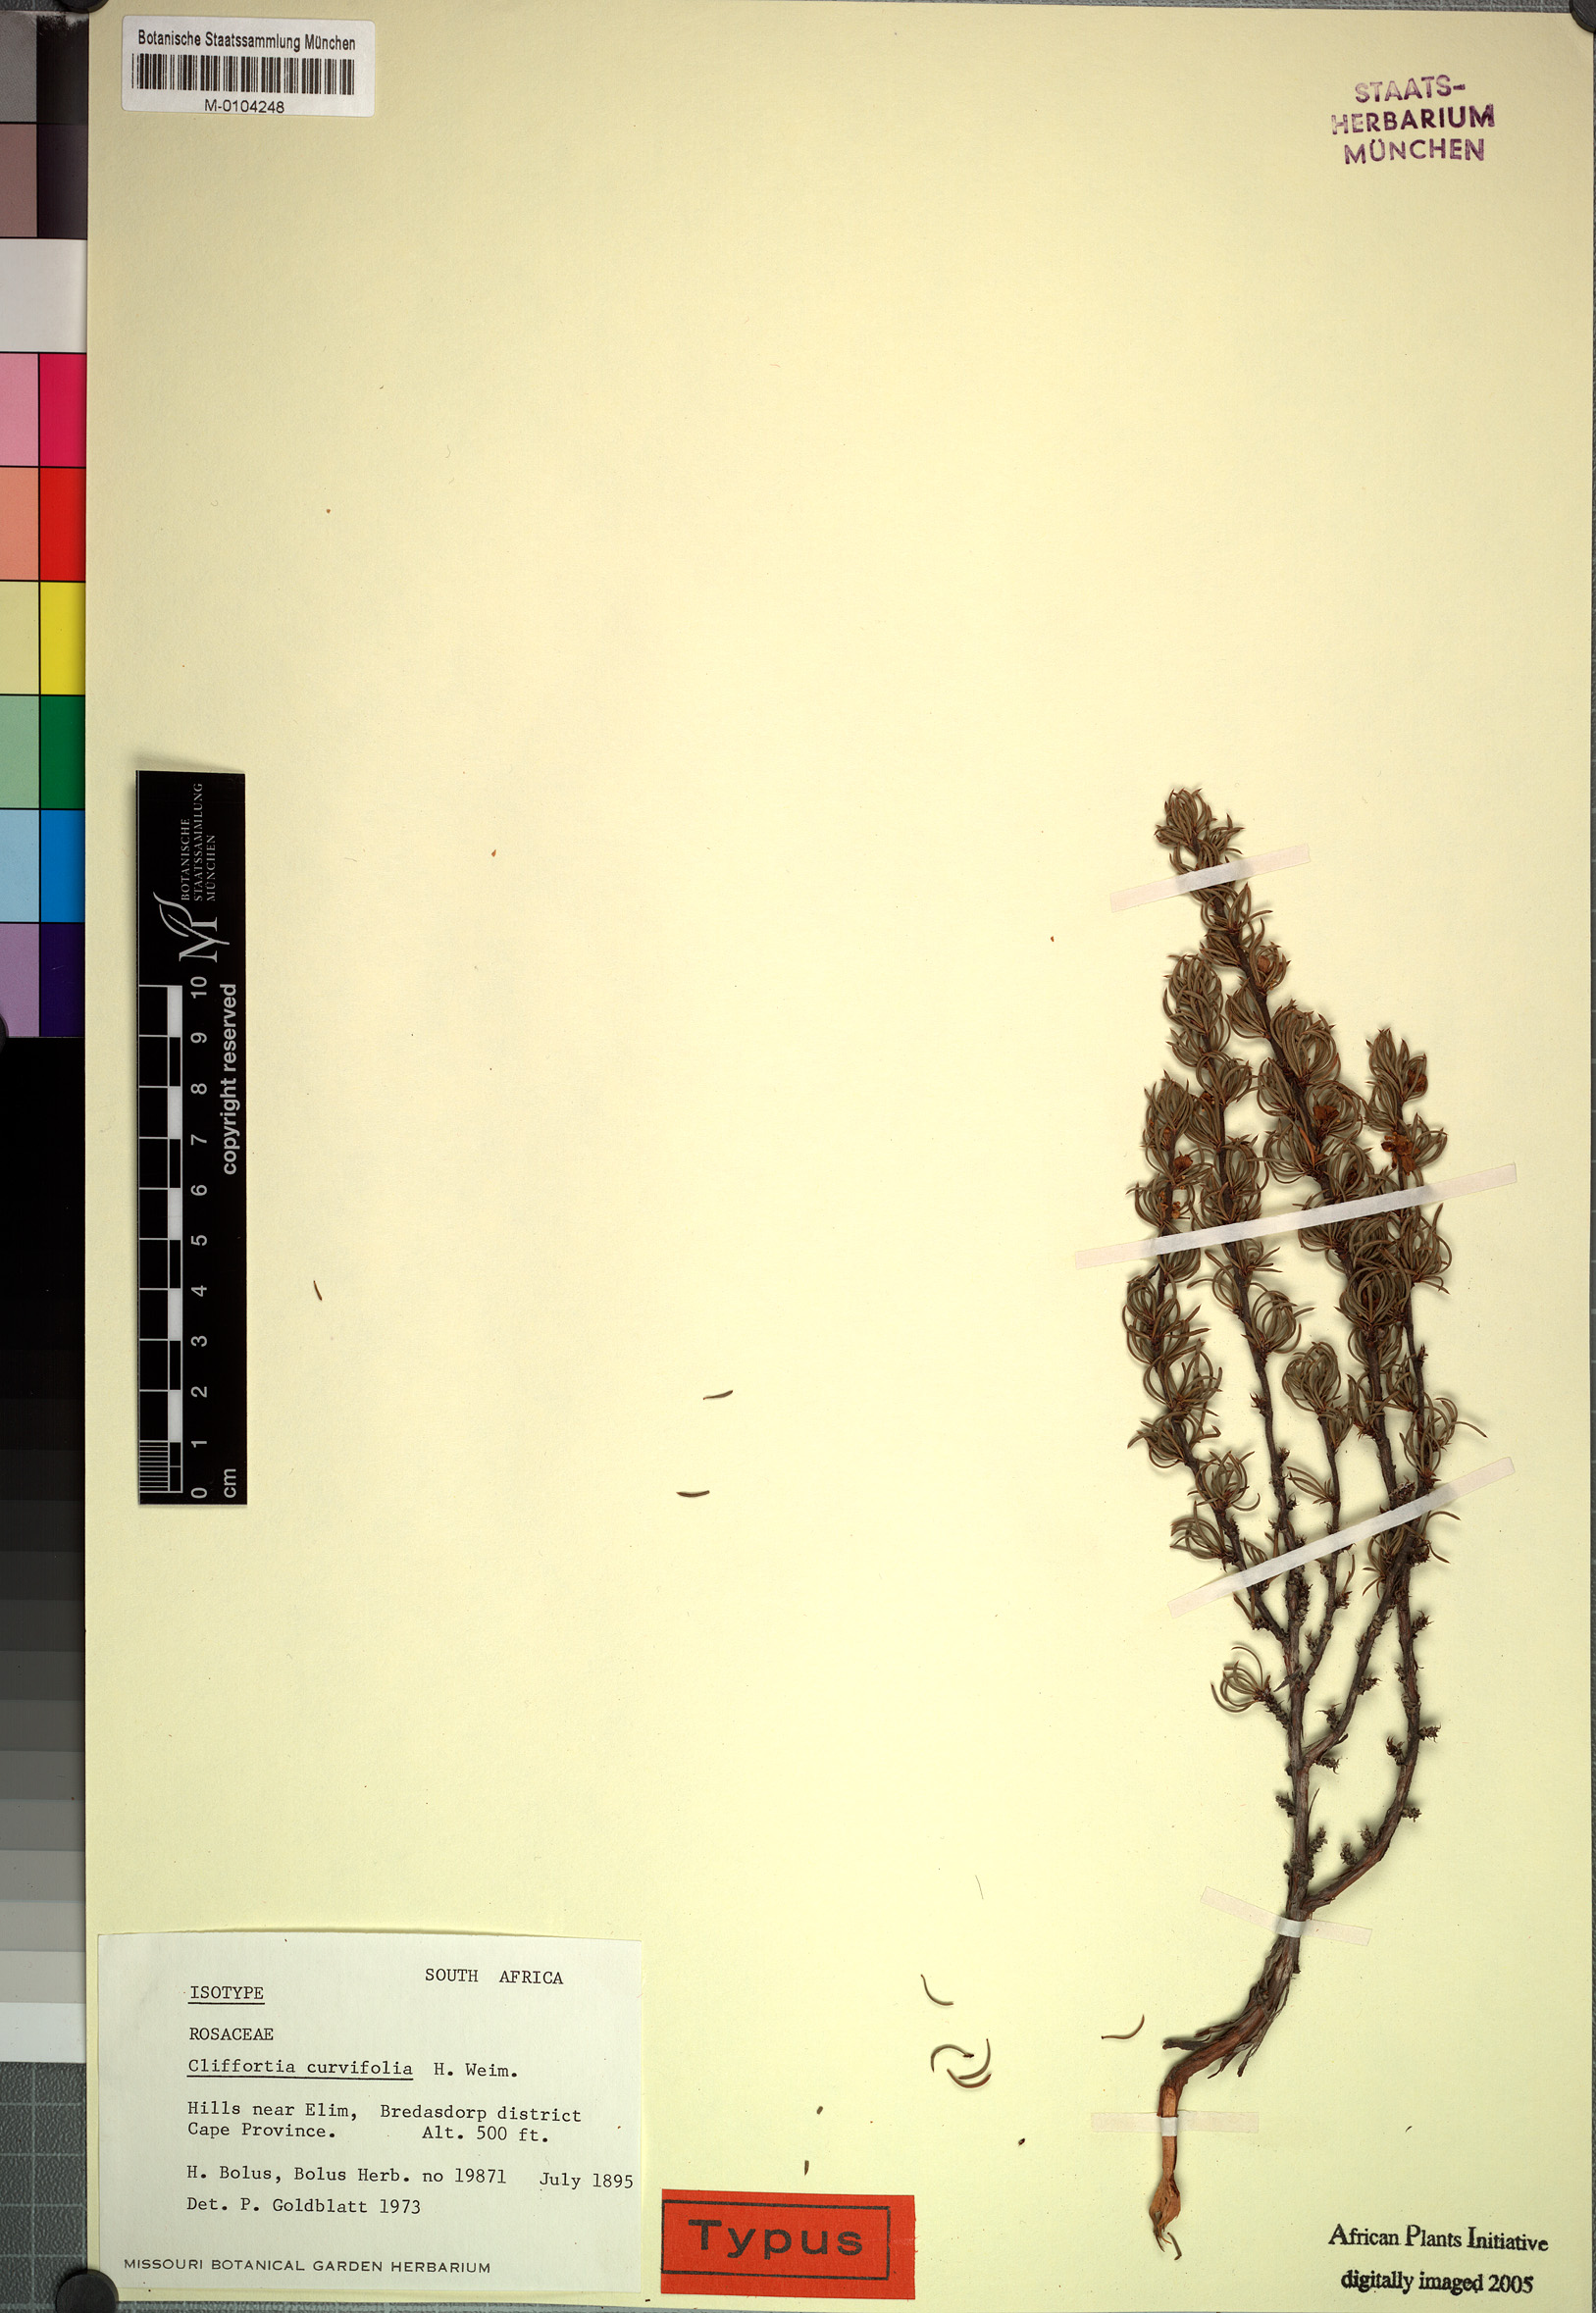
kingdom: Plantae
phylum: Tracheophyta
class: Magnoliopsida
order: Rosales
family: Rosaceae
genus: Cliffortia
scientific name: Cliffortia curvifolia
